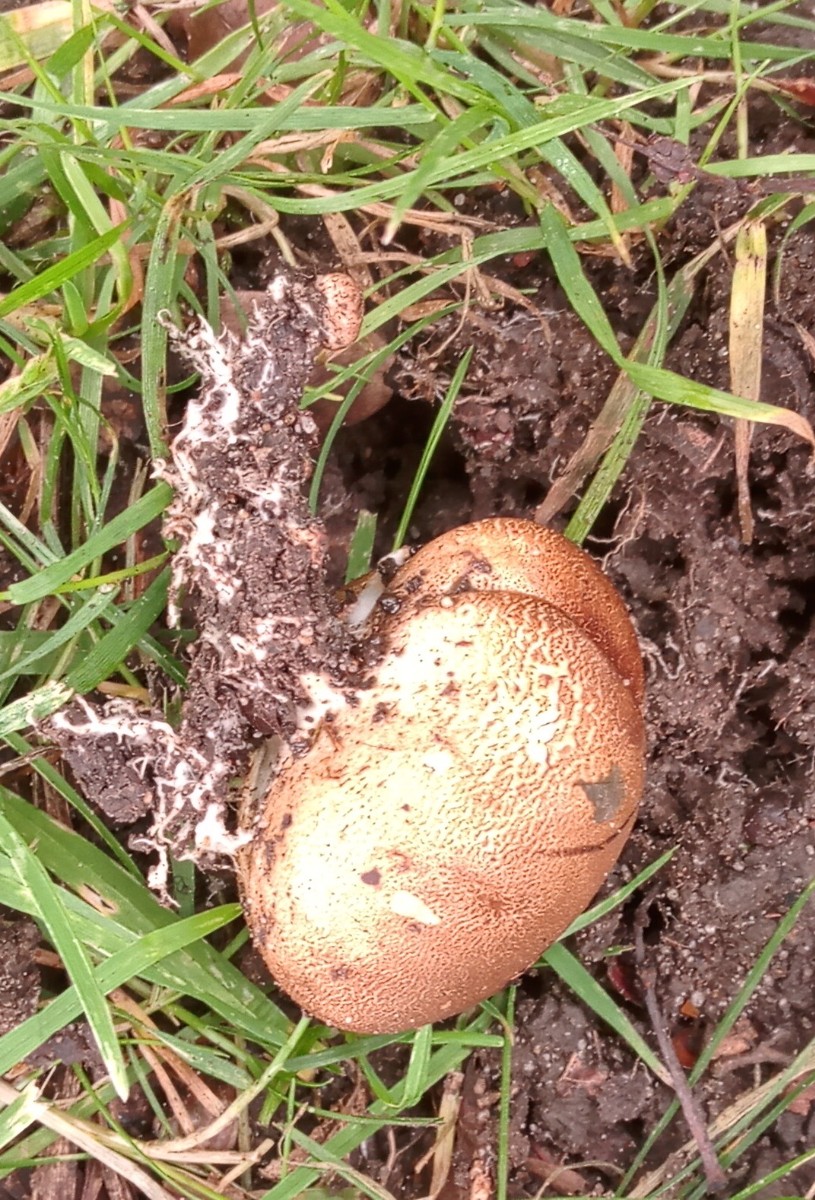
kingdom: Fungi
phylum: Basidiomycota
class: Agaricomycetes
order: Boletales
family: Sclerodermataceae
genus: Scleroderma
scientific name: Scleroderma
